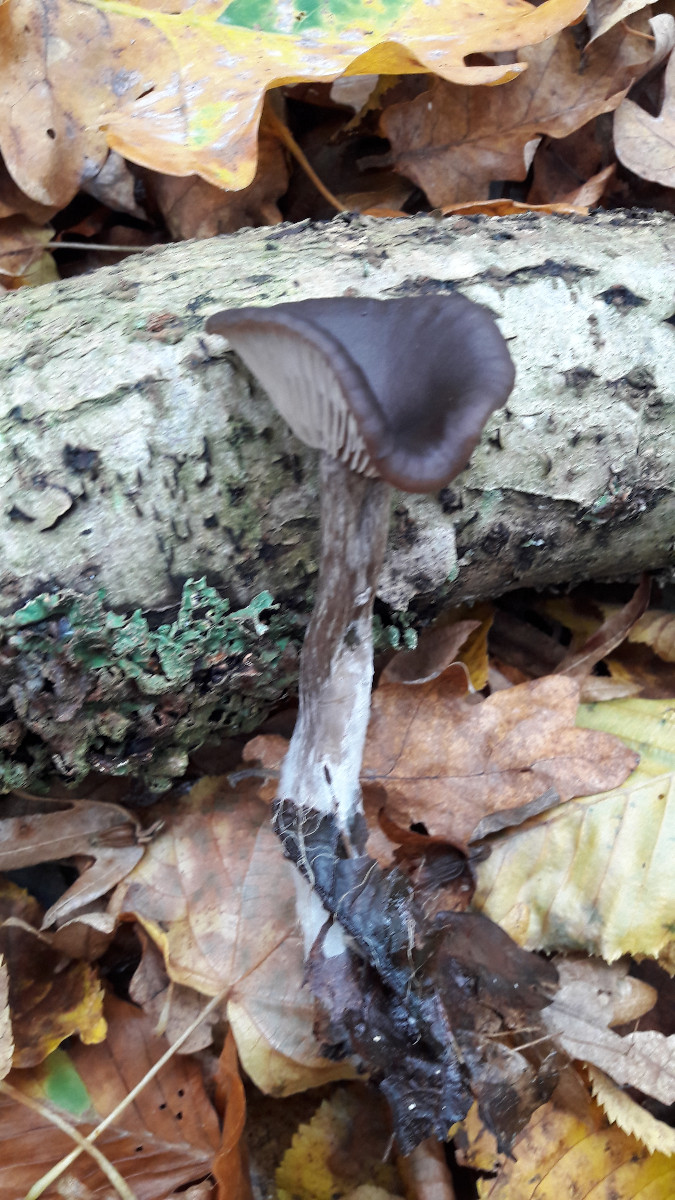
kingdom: Fungi
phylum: Basidiomycota
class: Agaricomycetes
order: Agaricales
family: Pseudoclitocybaceae
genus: Pseudoclitocybe
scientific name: Pseudoclitocybe cyathiformis
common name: almindelig bægertragthat
